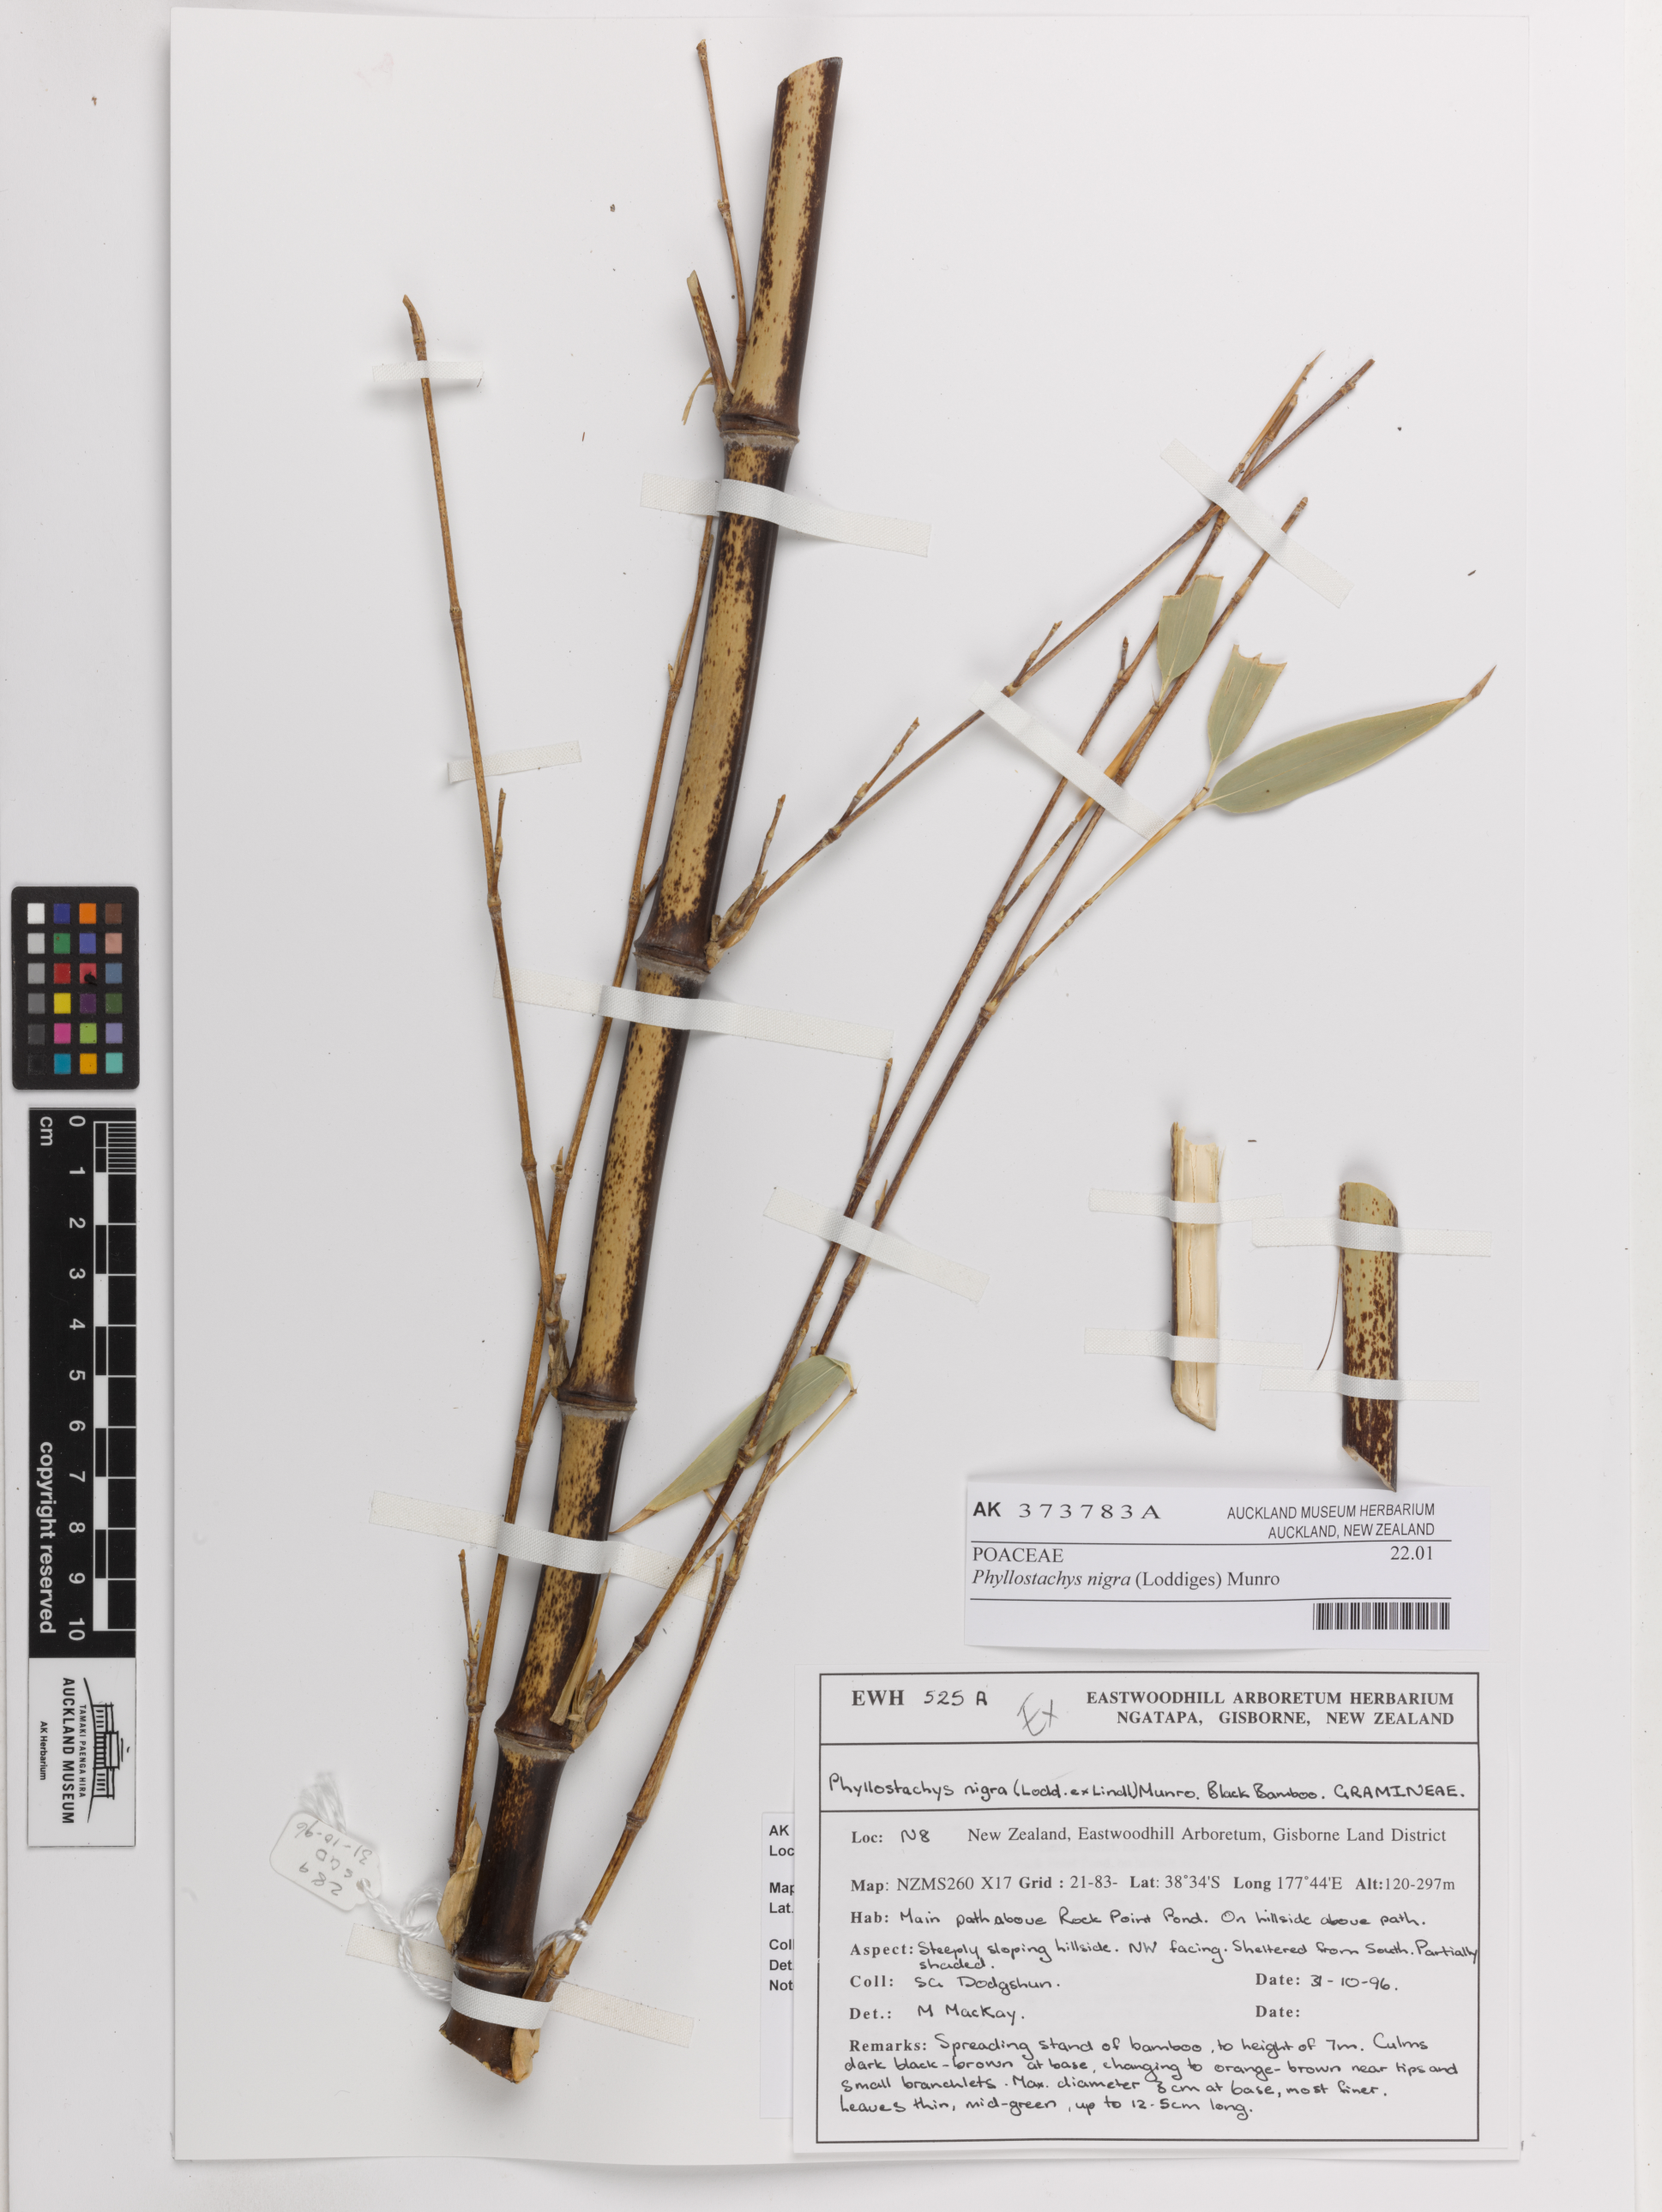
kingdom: Plantae
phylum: Tracheophyta
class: Liliopsida
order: Poales
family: Poaceae
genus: Phyllostachys
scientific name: Phyllostachys nigra
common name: Black bamboo
